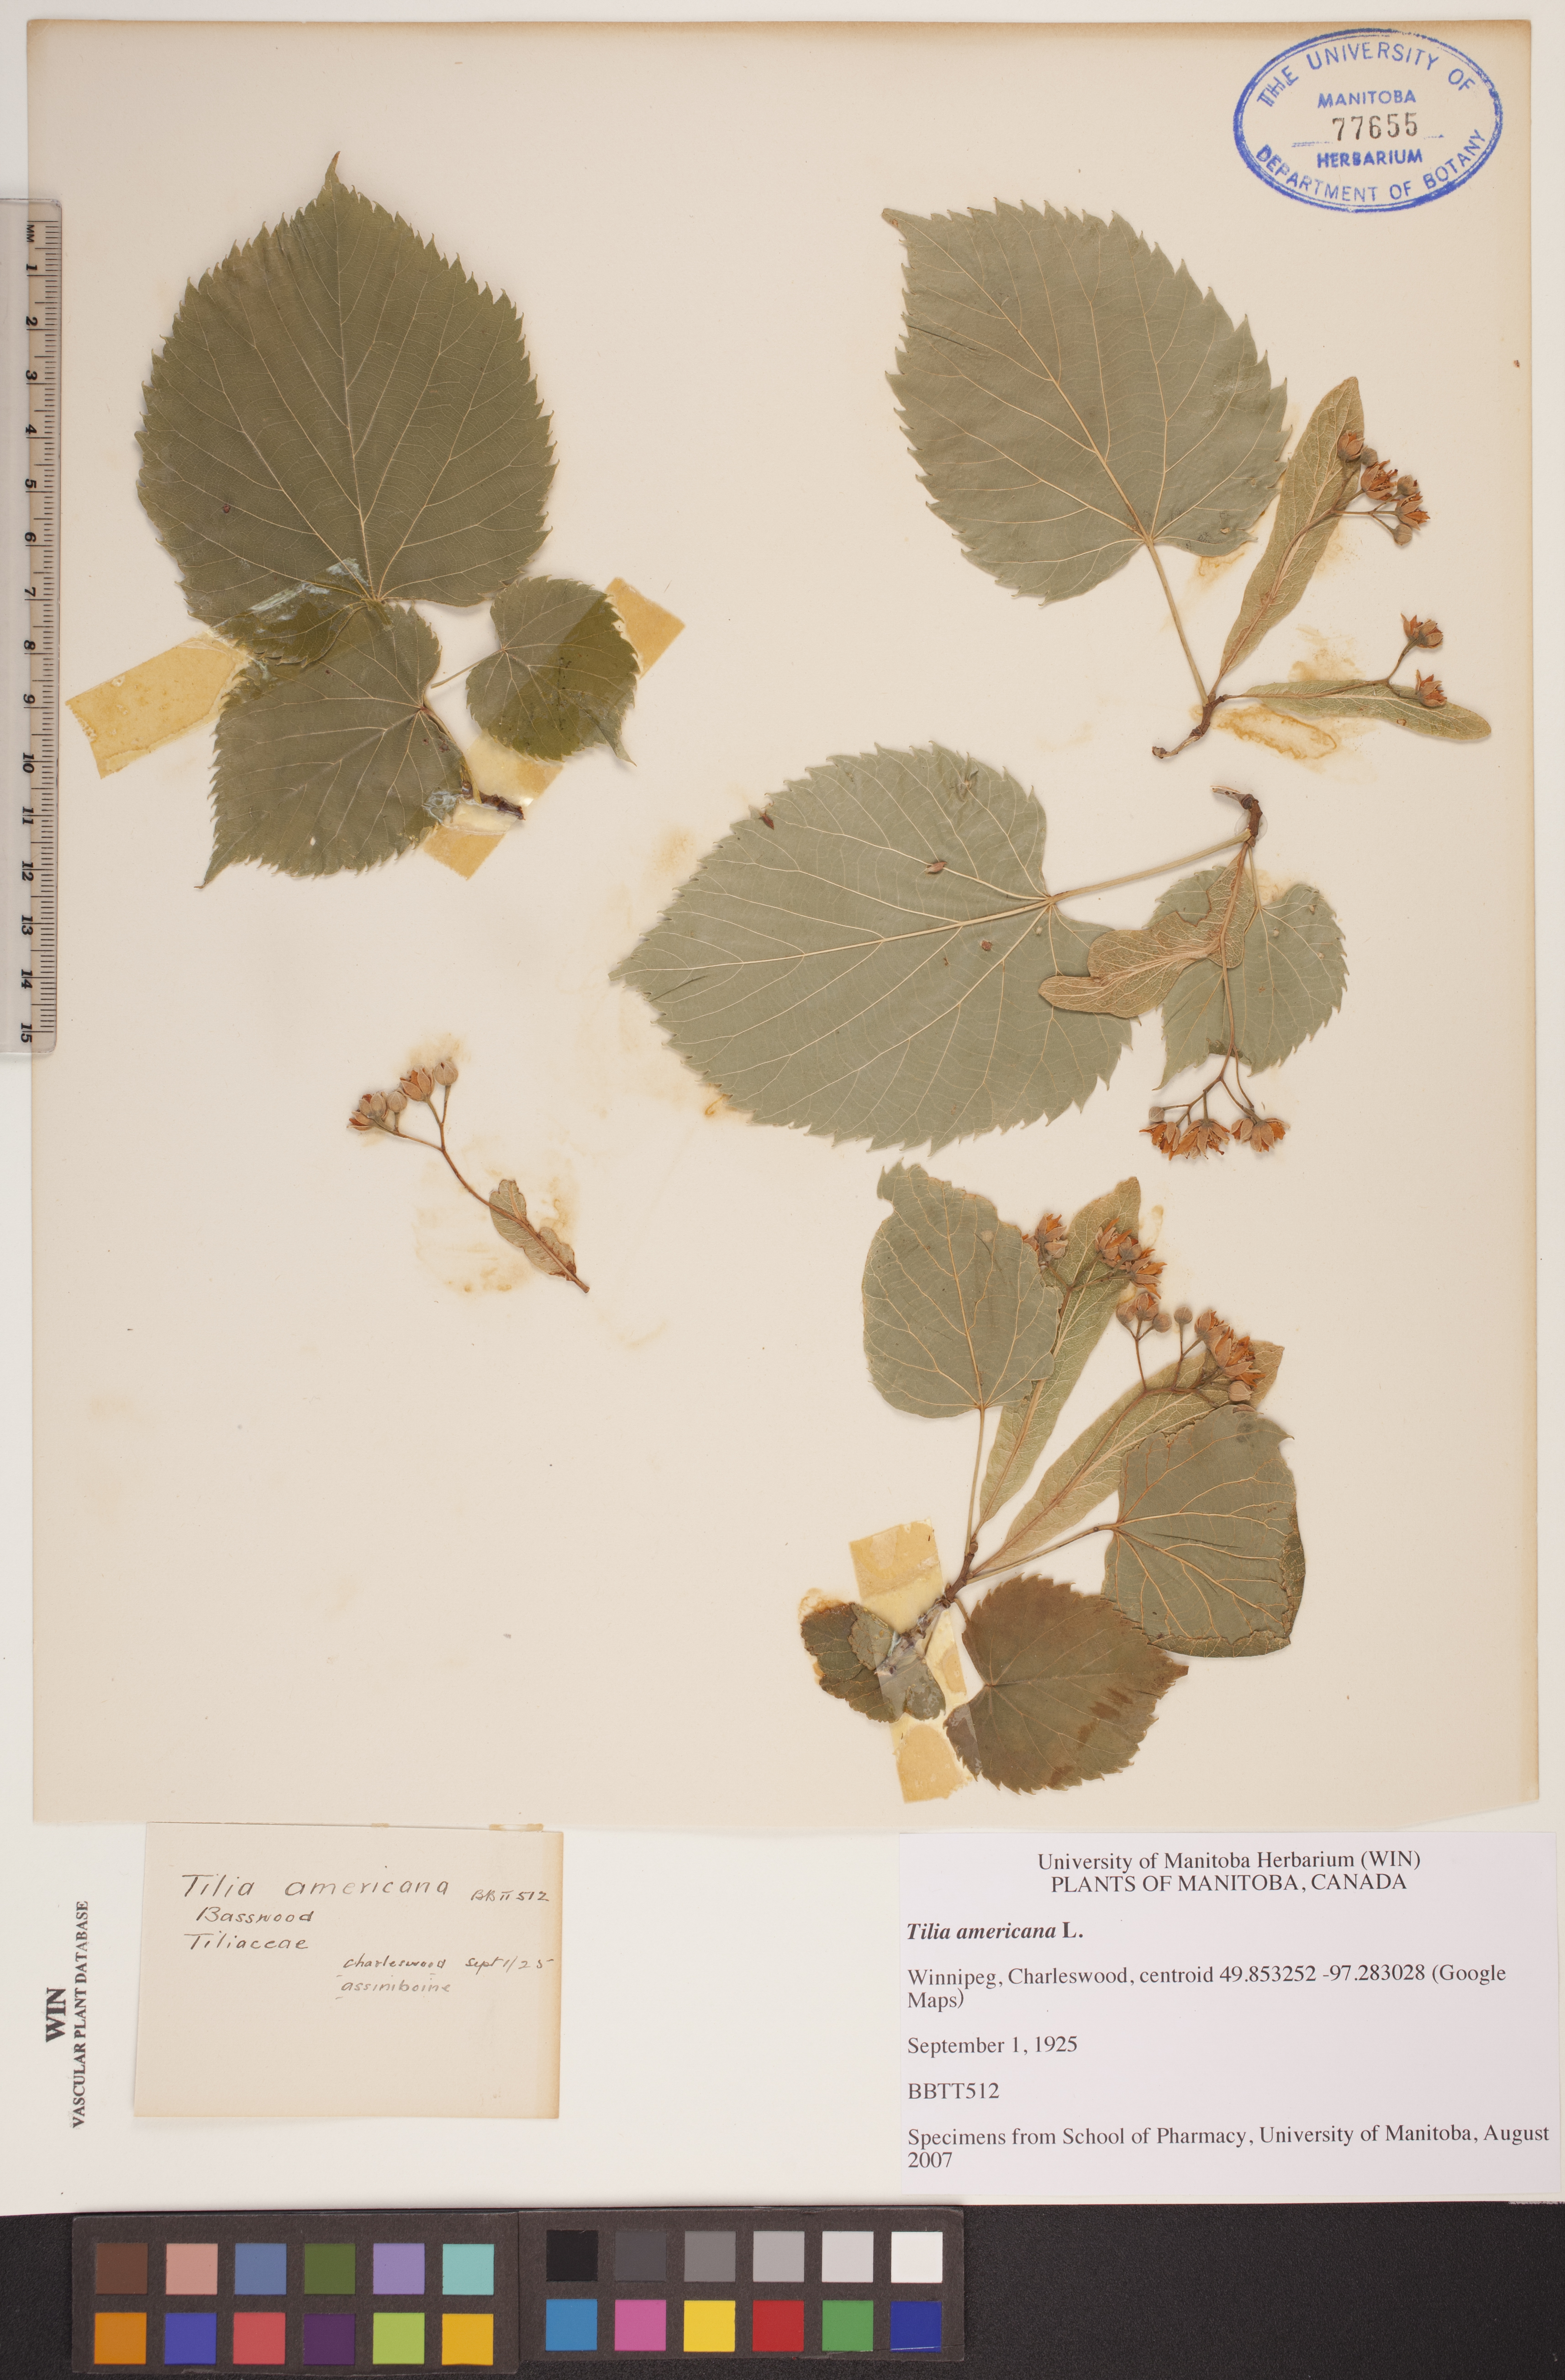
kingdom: Plantae
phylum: Tracheophyta
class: Magnoliopsida
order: Malvales
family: Malvaceae
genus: Tilia
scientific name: Tilia americana
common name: Basswood
